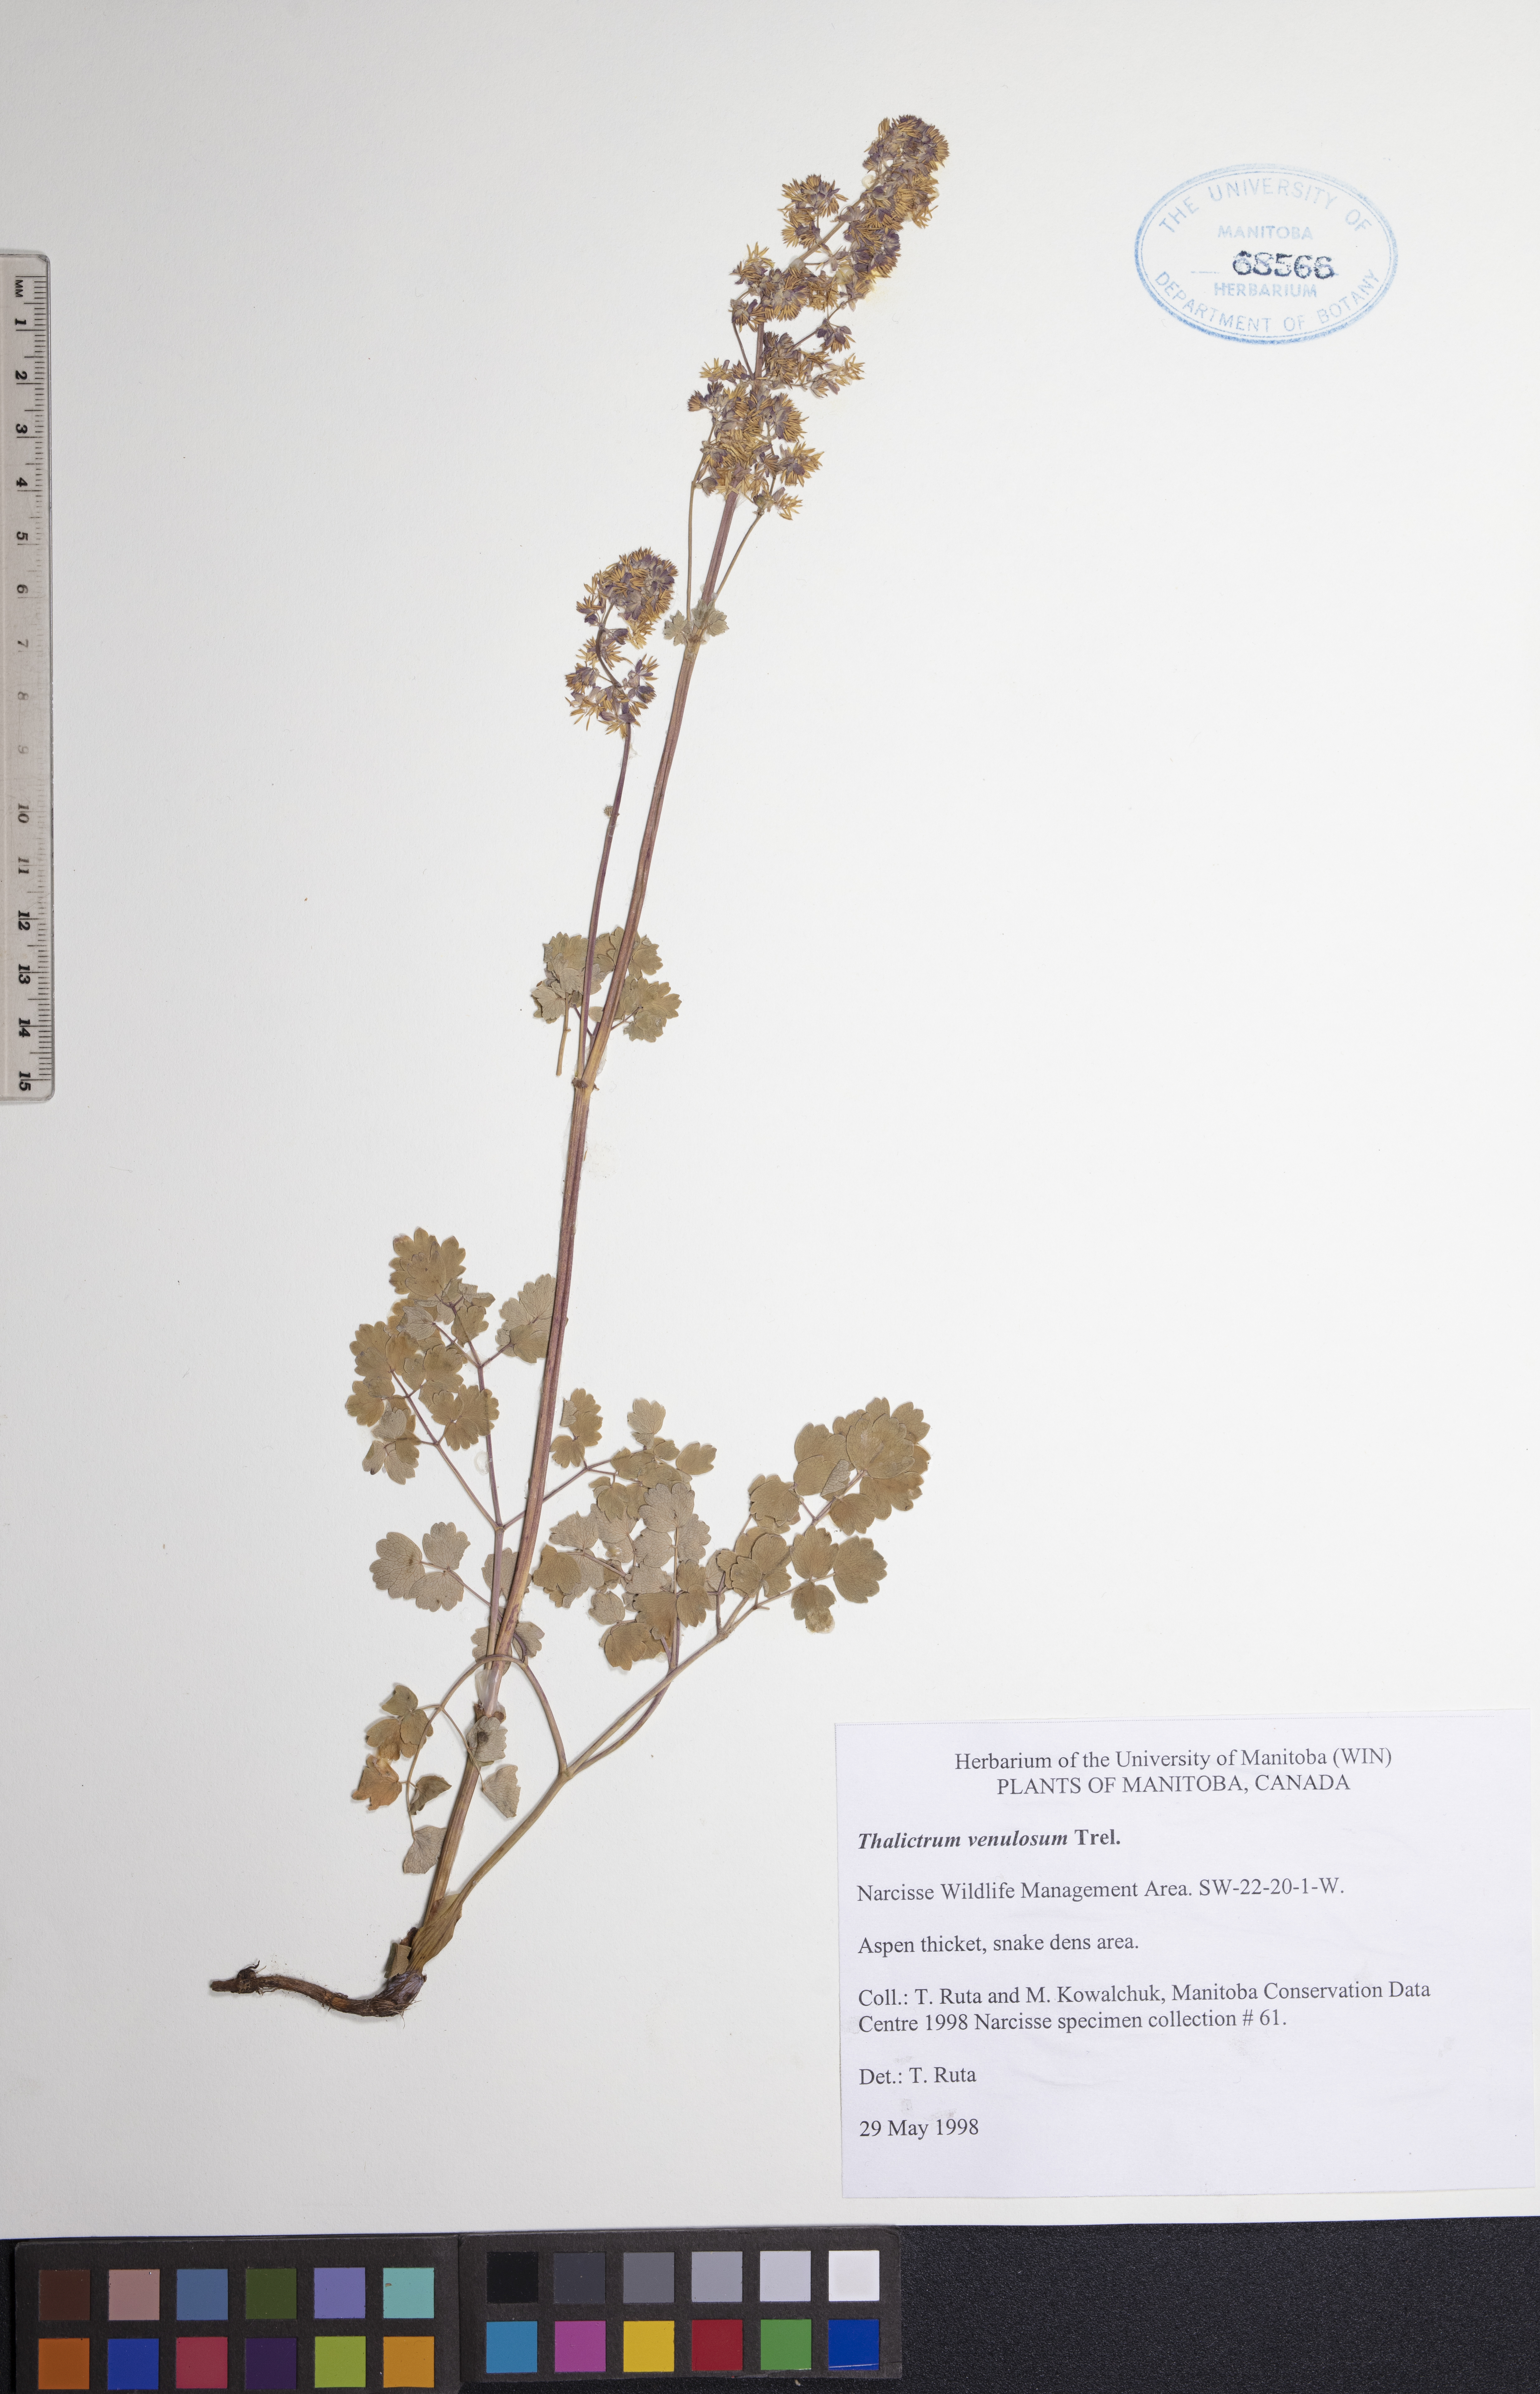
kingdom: Plantae
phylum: Tracheophyta
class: Magnoliopsida
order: Ranunculales
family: Ranunculaceae
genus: Thalictrum
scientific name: Thalictrum venulosum
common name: Early meadow-rue
